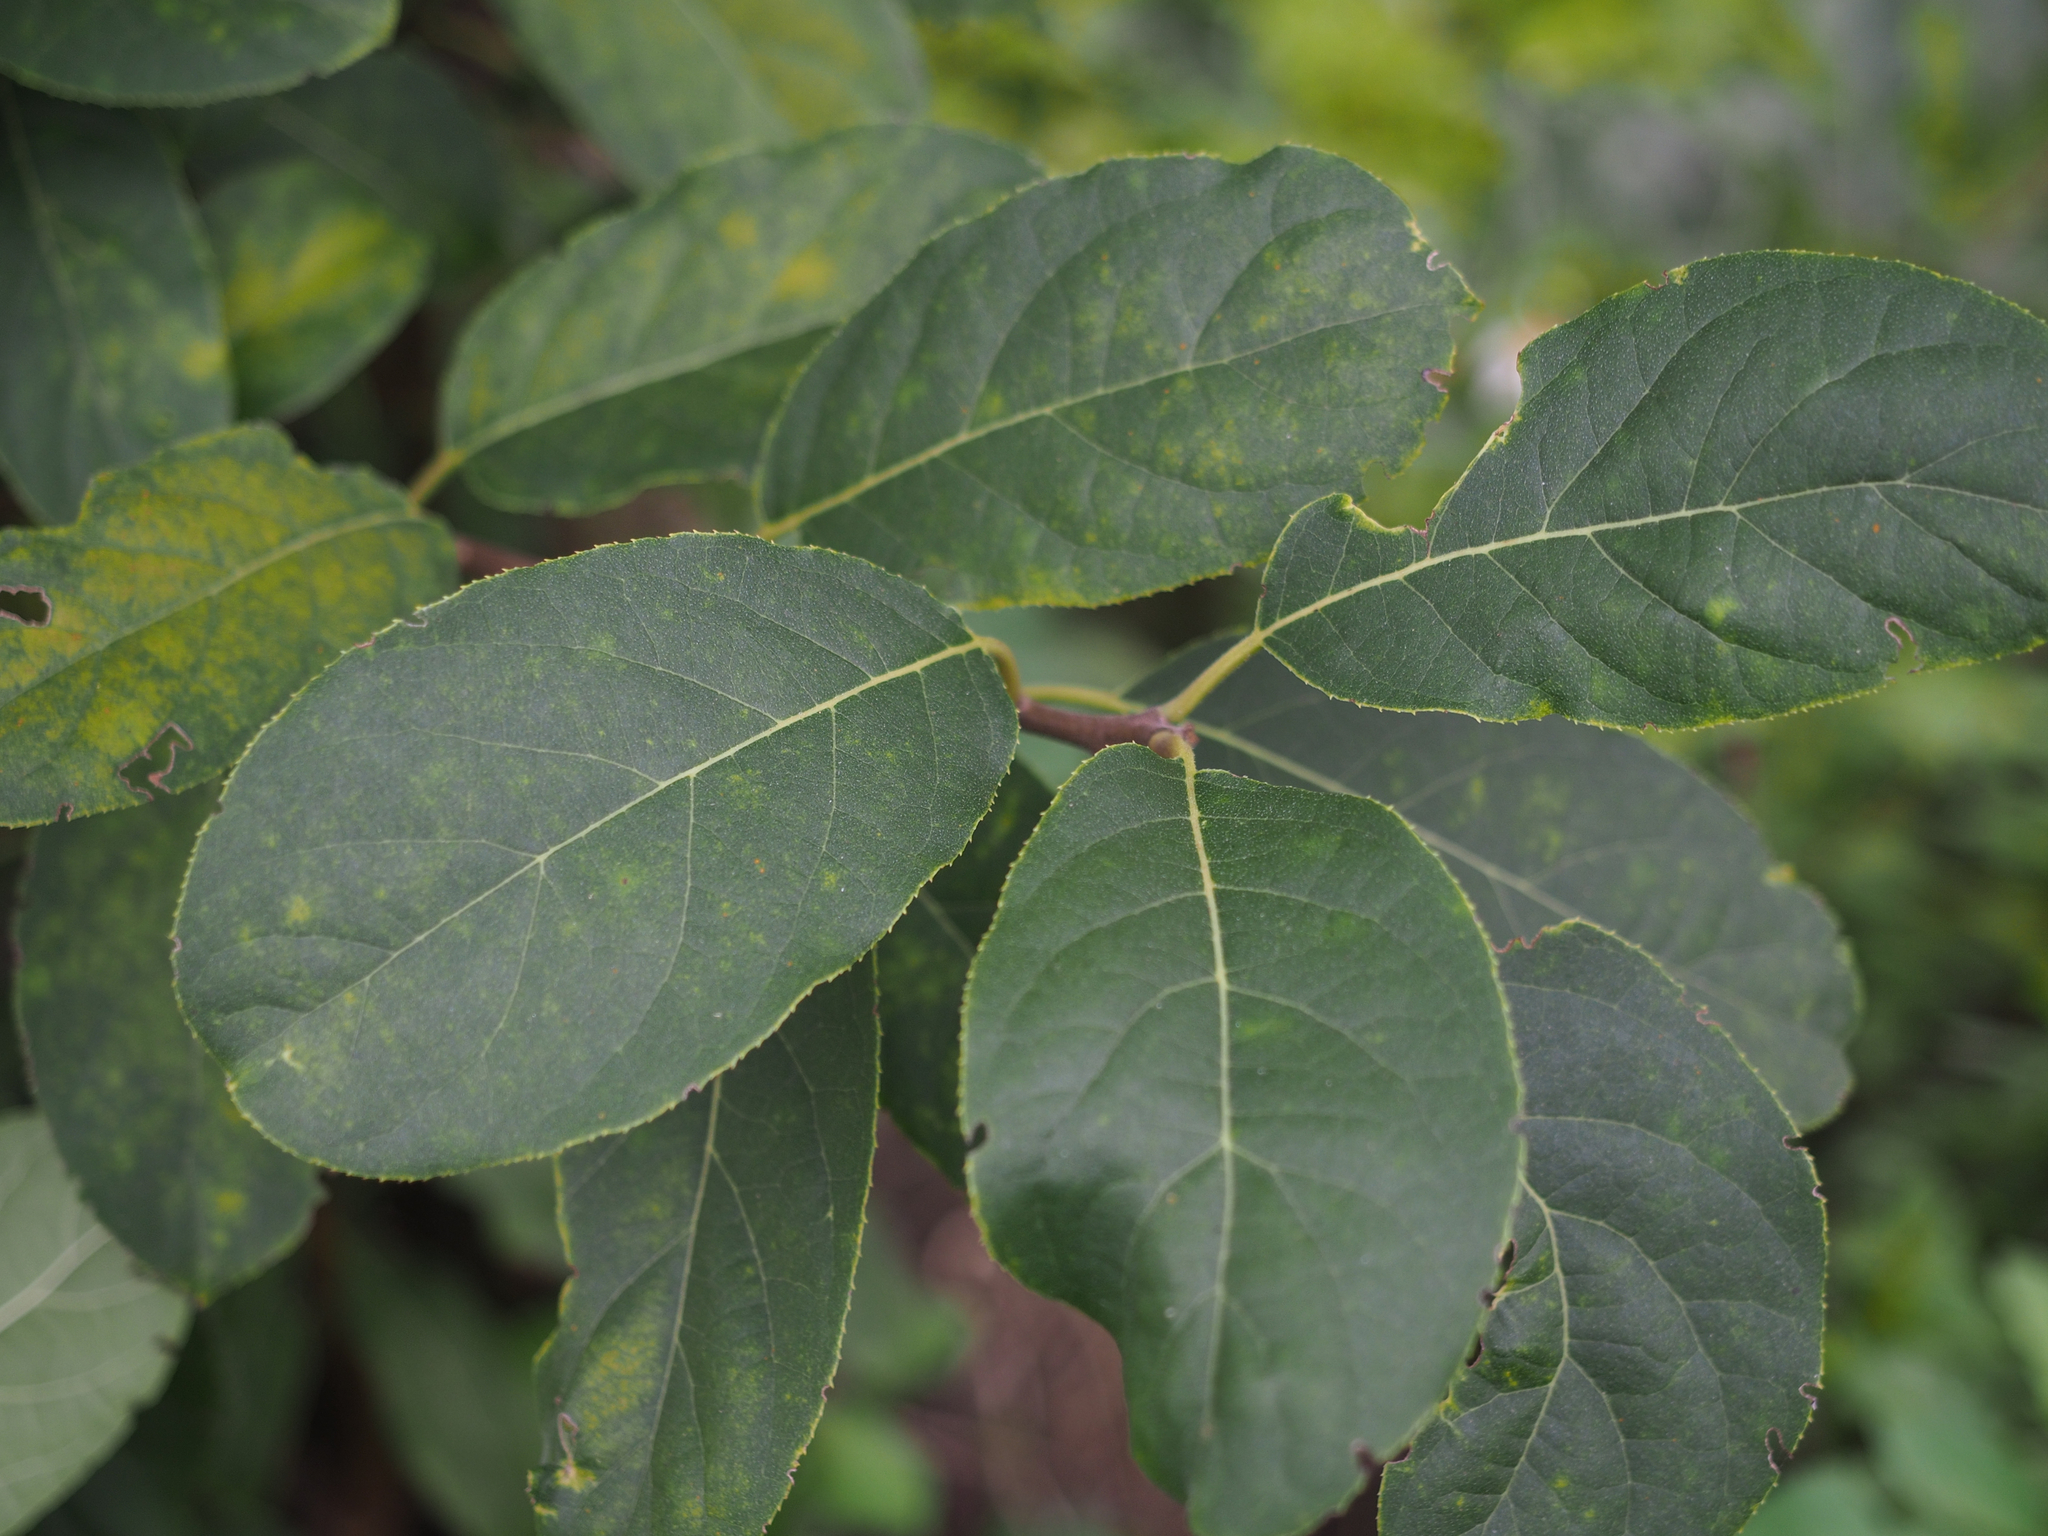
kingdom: Plantae
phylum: Tracheophyta
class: Magnoliopsida
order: Boraginales
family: Ehretiaceae
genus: Ehretia
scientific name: Ehretia acuminata
